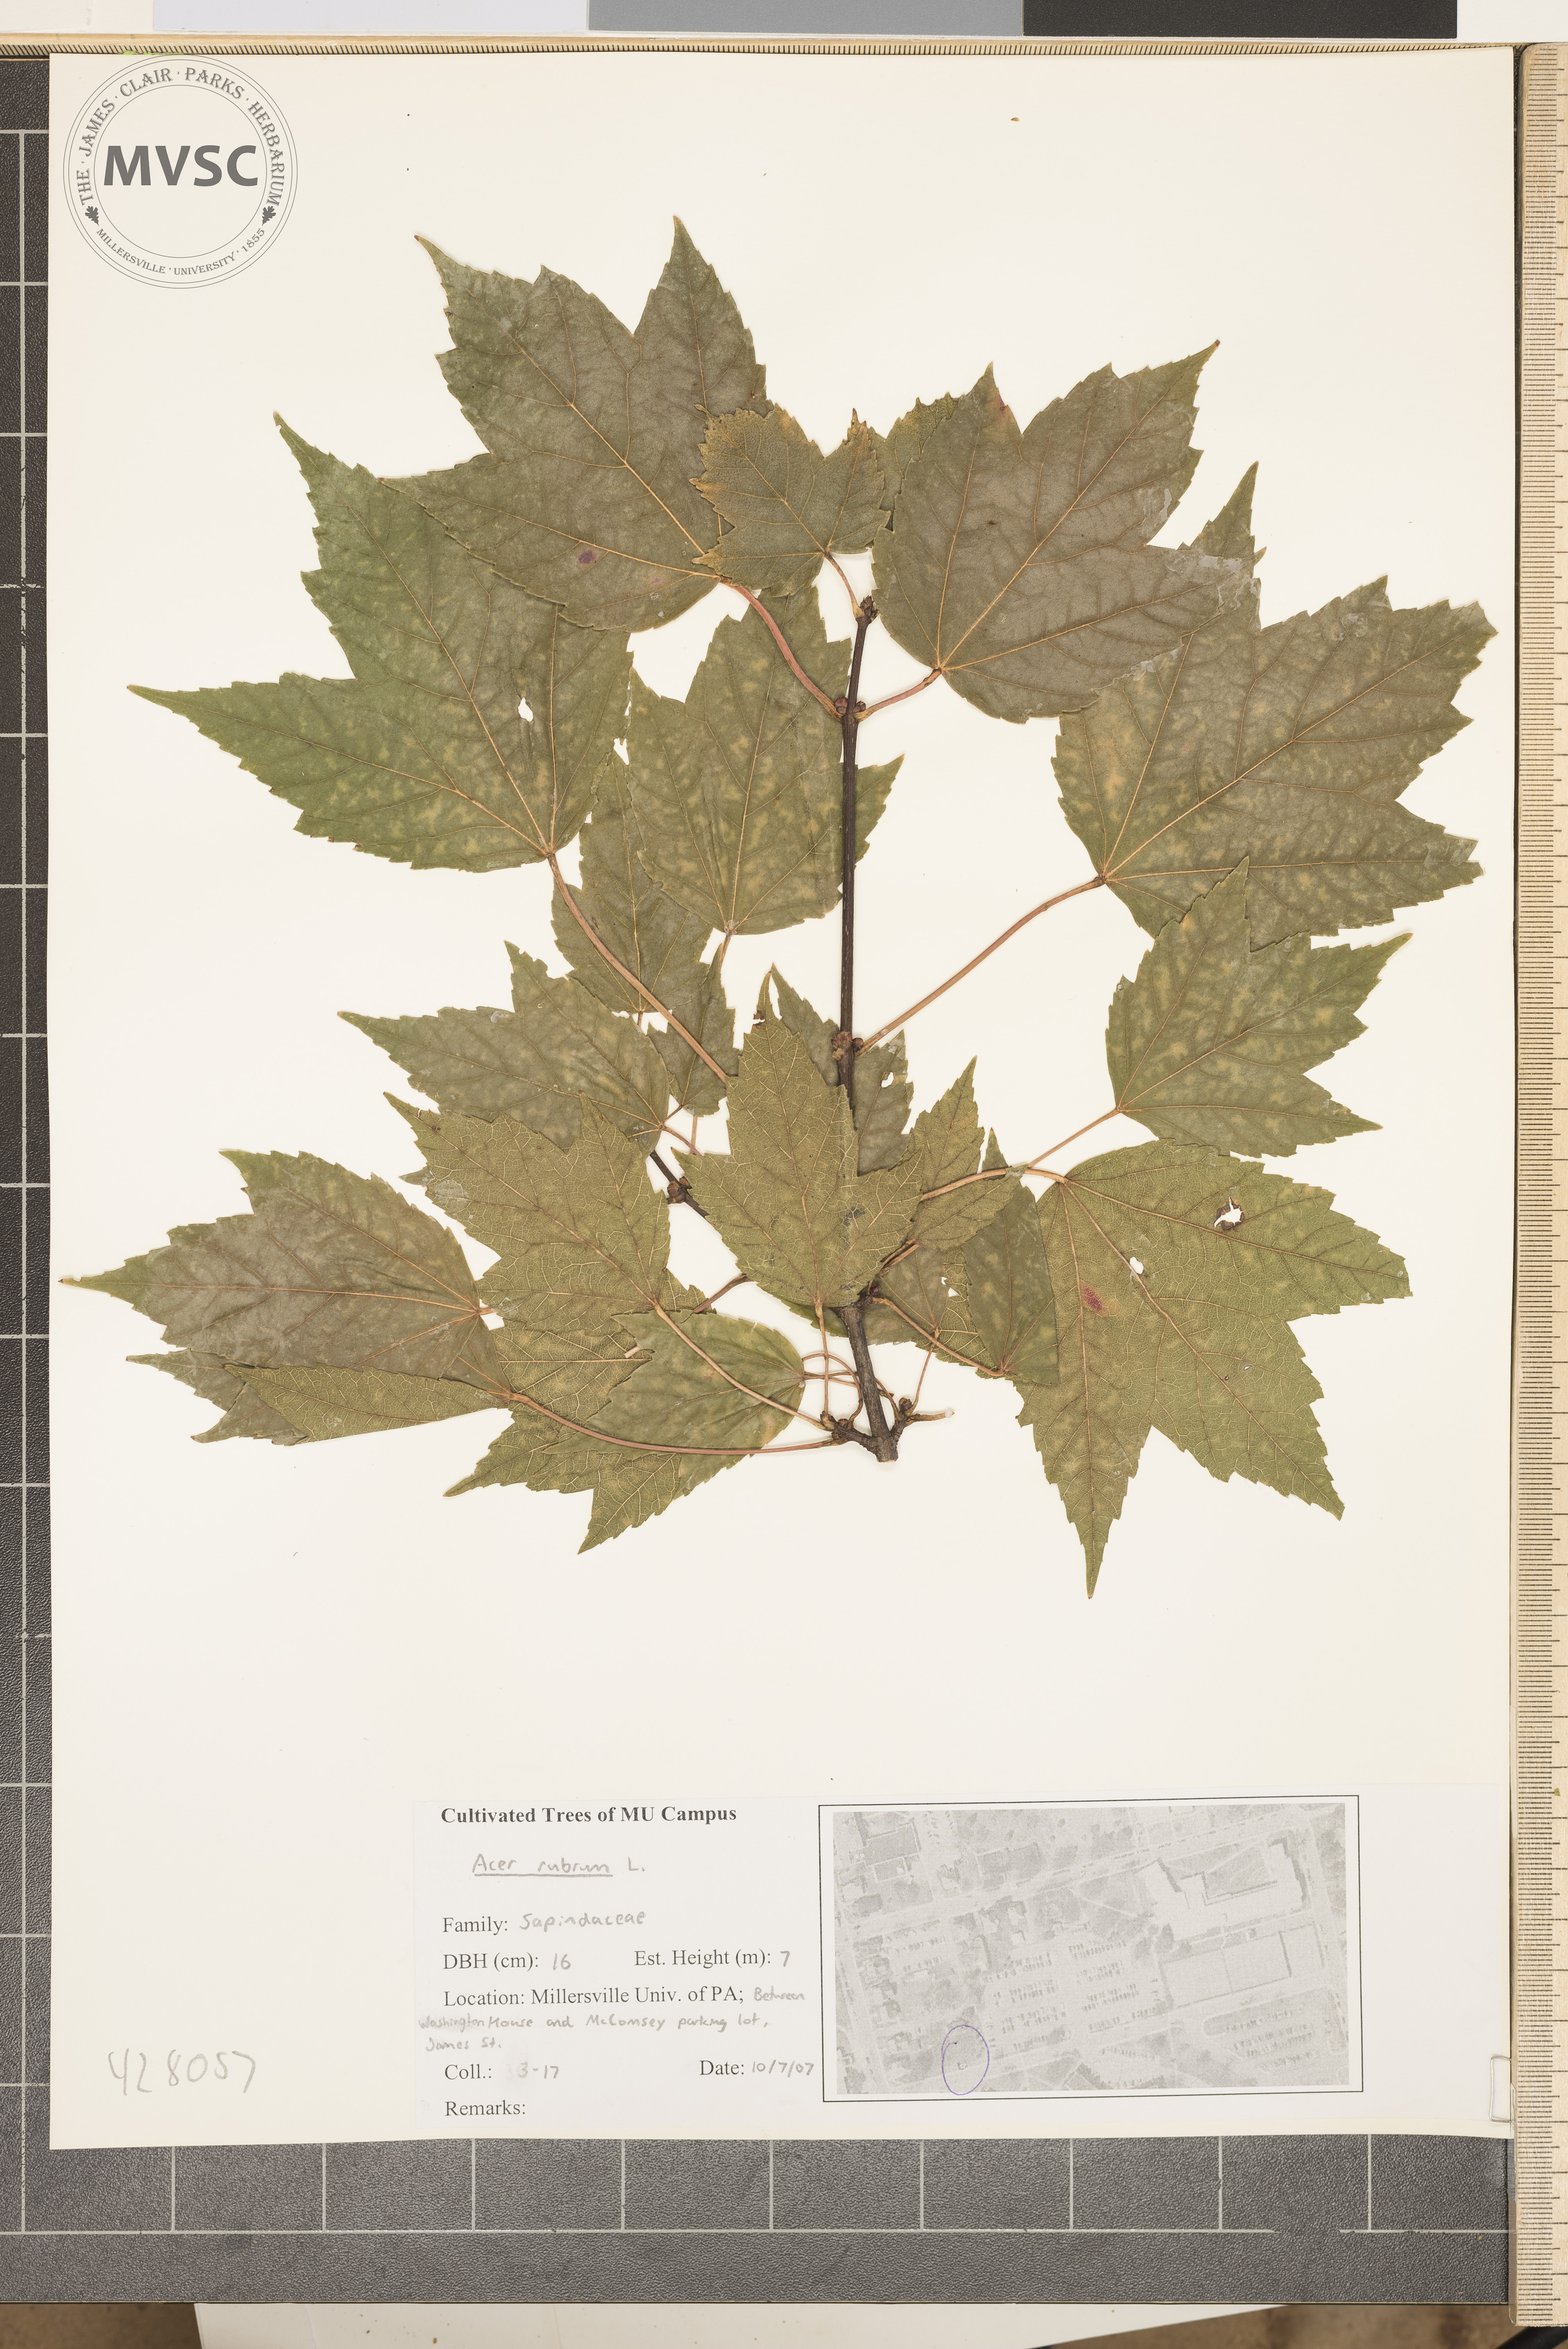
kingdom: Plantae
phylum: Tracheophyta
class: Magnoliopsida
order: Sapindales
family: Sapindaceae
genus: Acer
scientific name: Acer rubrum
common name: Red maple
